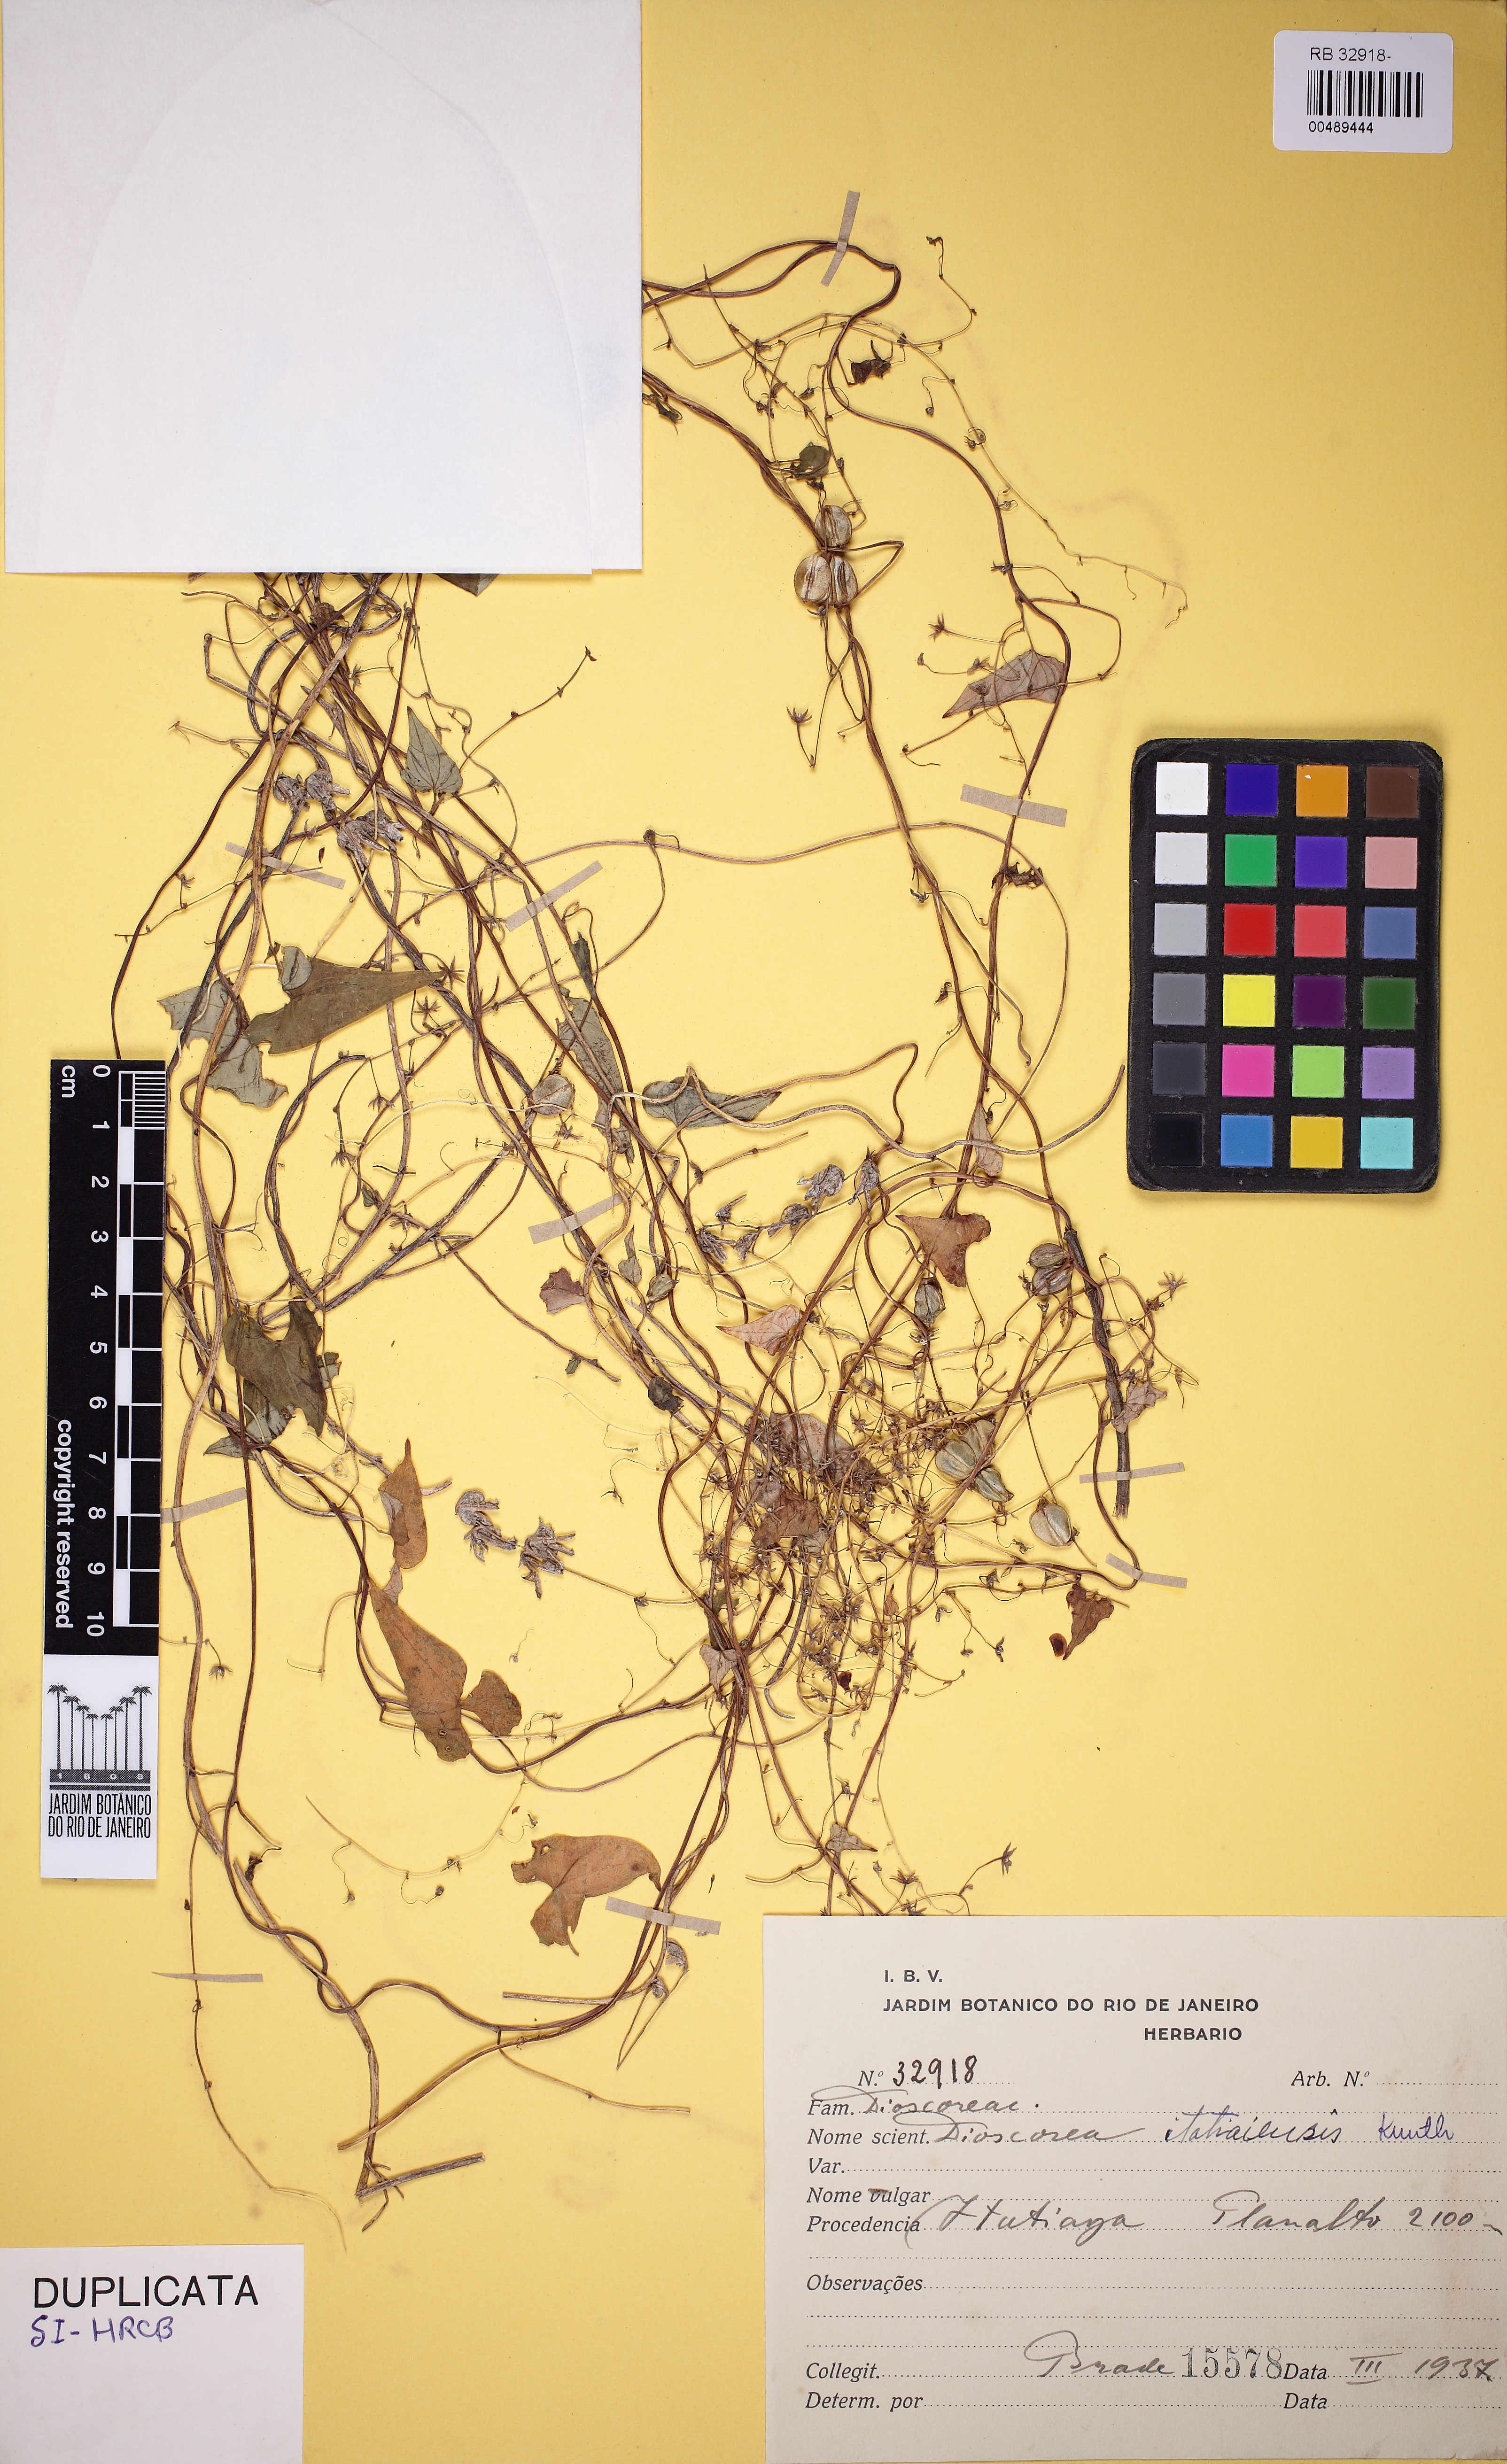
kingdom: Plantae
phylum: Tracheophyta
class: Liliopsida
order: Dioscoreales
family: Dioscoreaceae
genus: Dioscorea
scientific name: Dioscorea itatiaiensis
